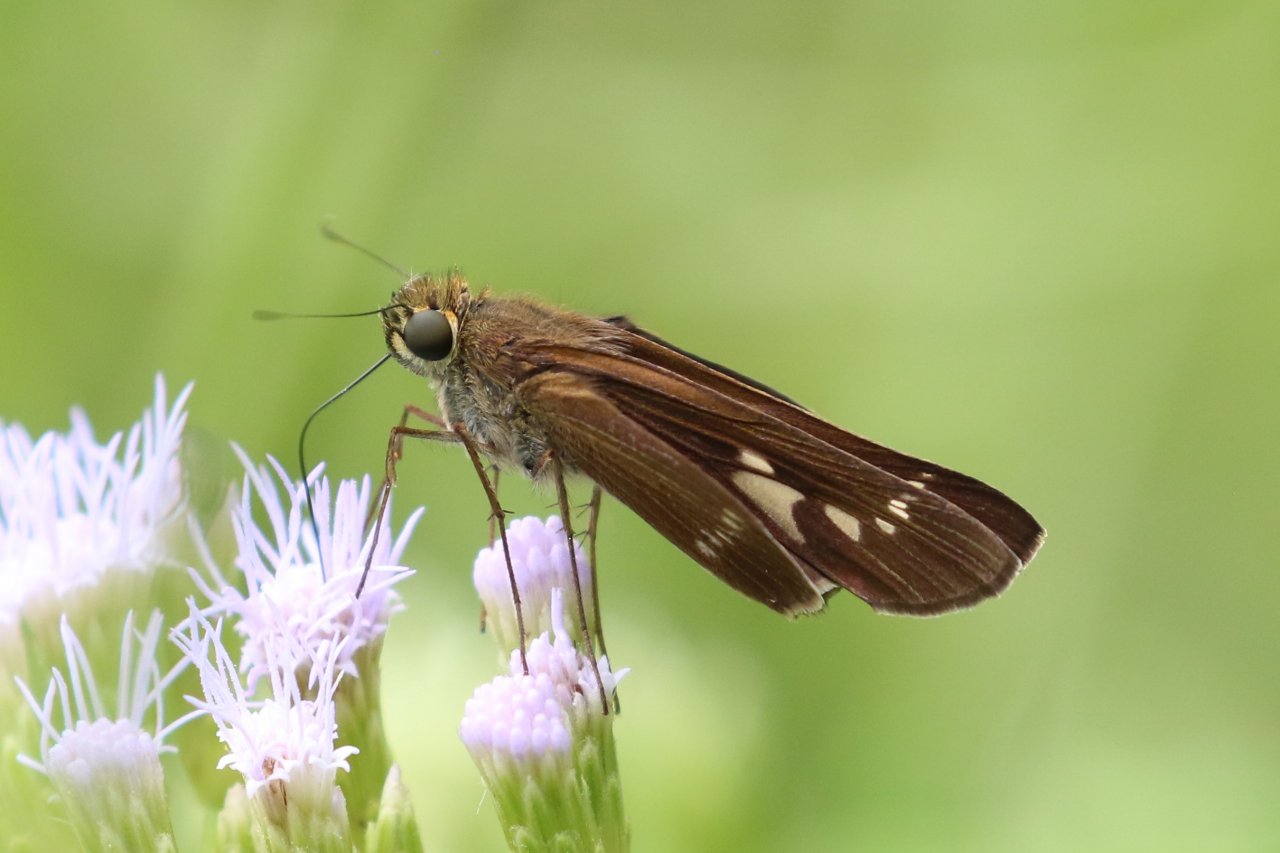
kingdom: Animalia
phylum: Arthropoda
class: Insecta
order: Lepidoptera
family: Hesperiidae
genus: Turesis
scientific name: Turesis lucas
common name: Purple-washed Skipper
